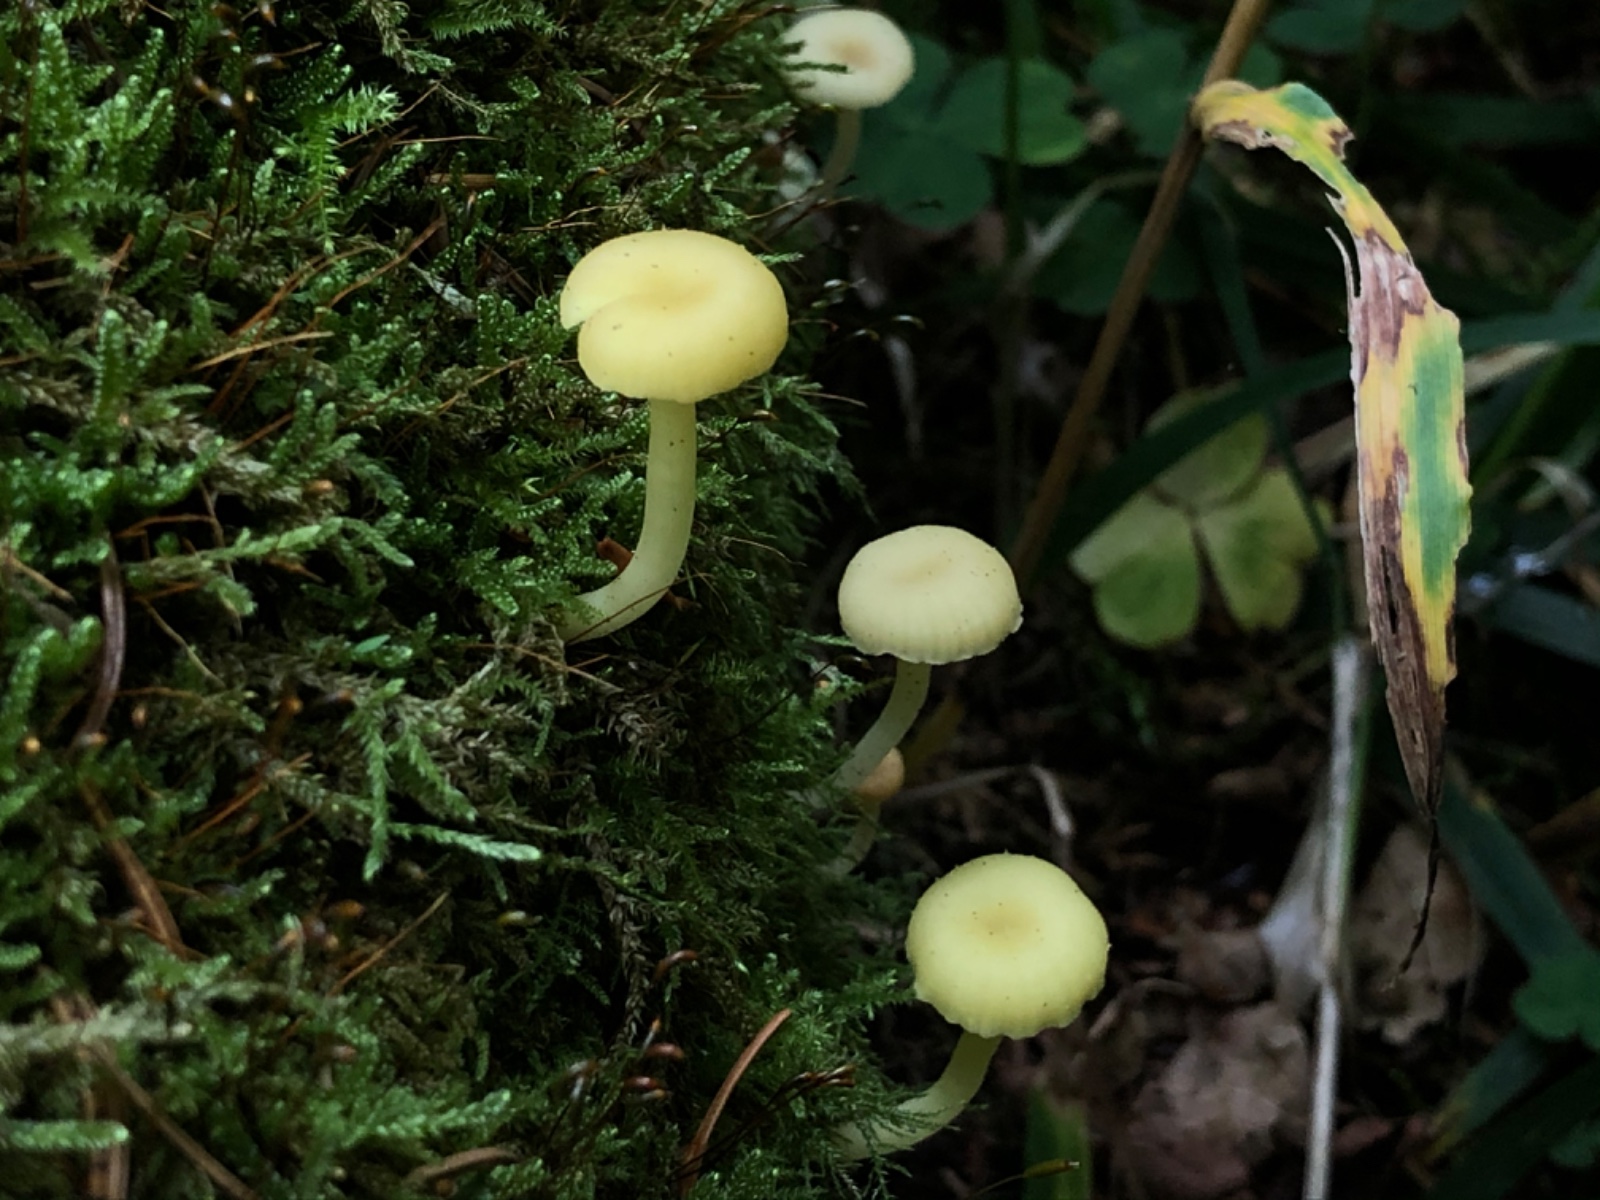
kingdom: Fungi
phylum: Basidiomycota
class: Agaricomycetes
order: Agaricales
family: Hygrophoraceae
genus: Chrysomphalina
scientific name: Chrysomphalina grossula
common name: stød-gyldenblad
